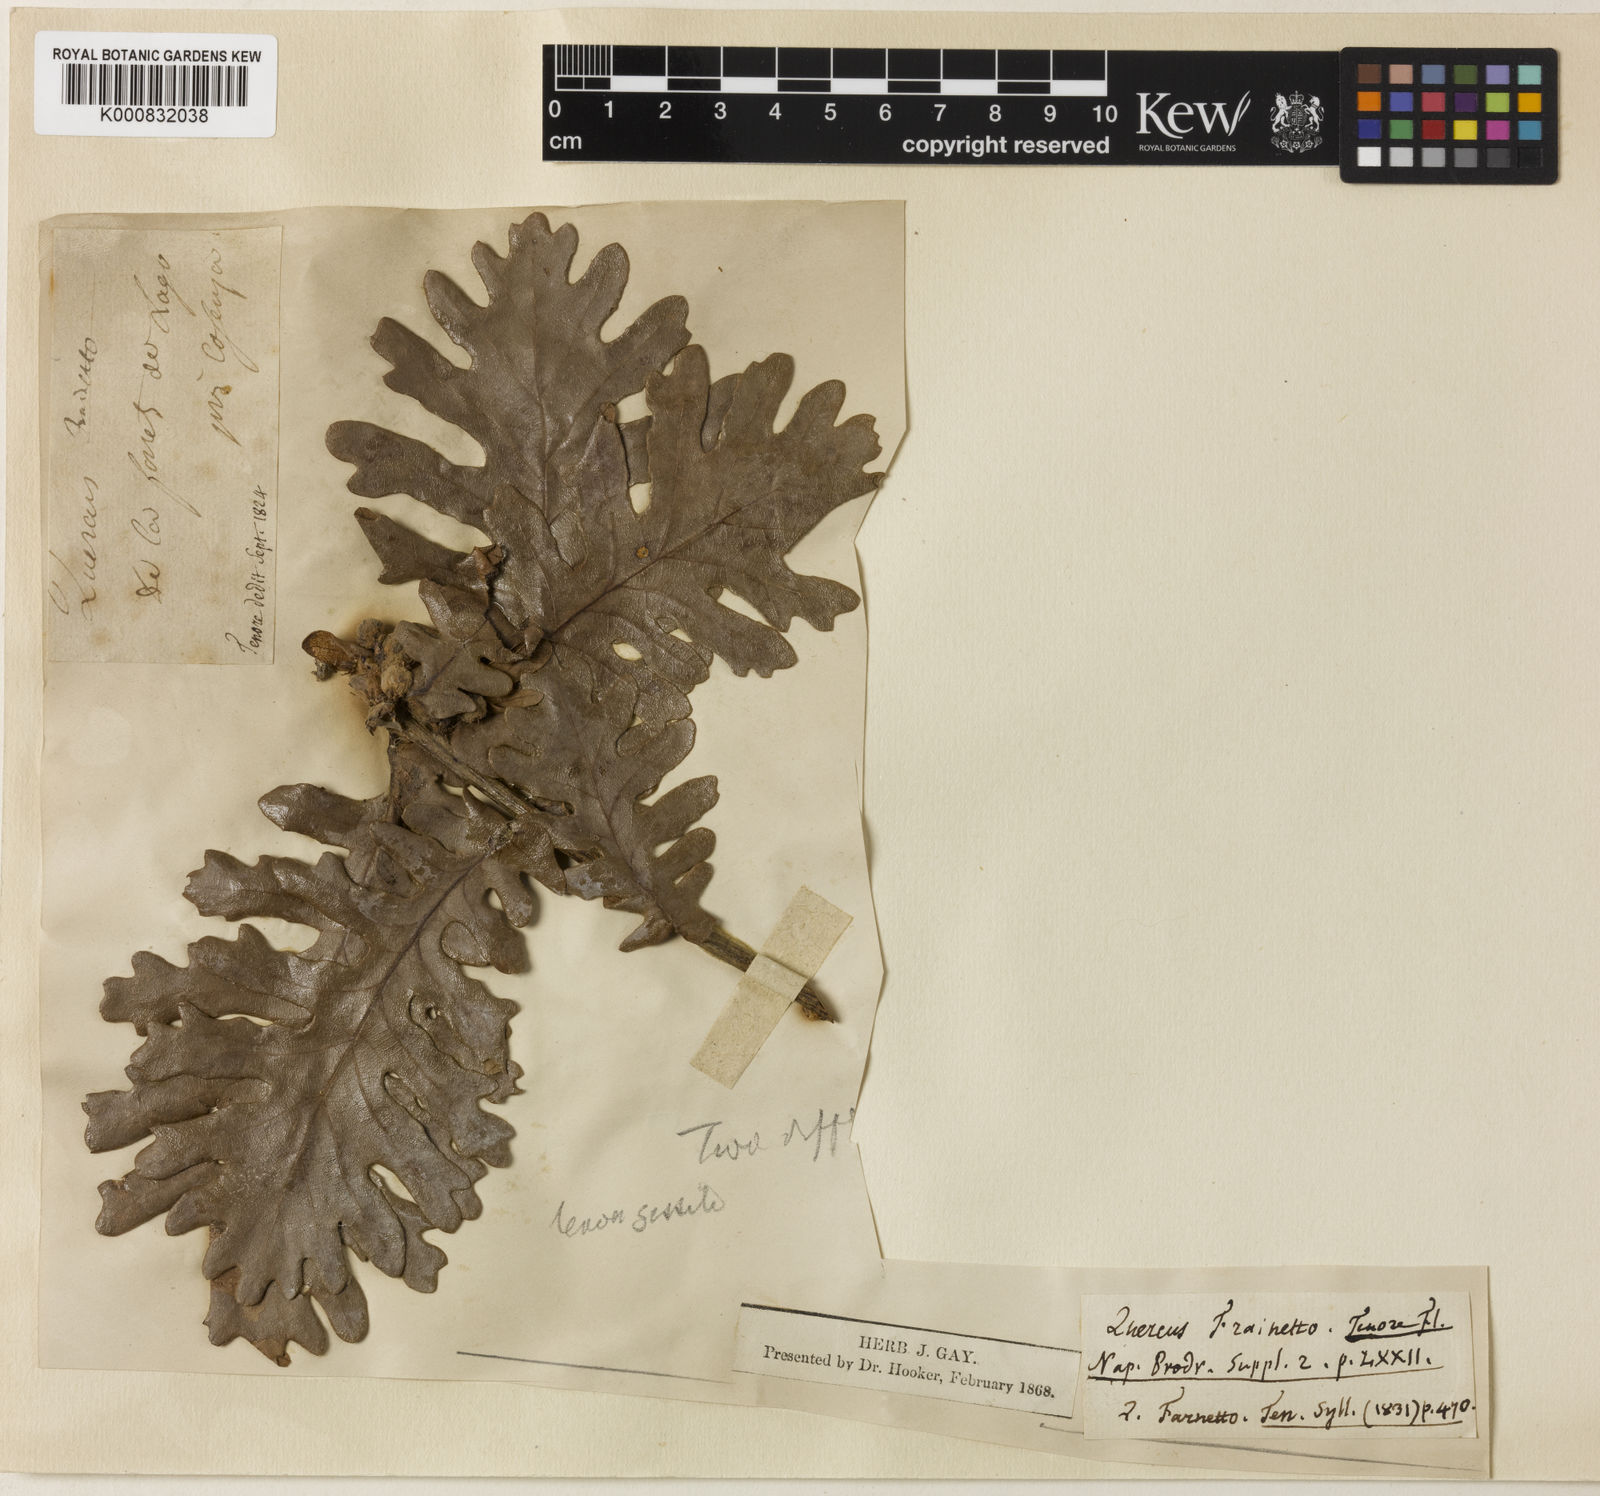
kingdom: Plantae
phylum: Tracheophyta
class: Magnoliopsida
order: Fagales
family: Fagaceae
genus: Quercus
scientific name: Quercus conferta
